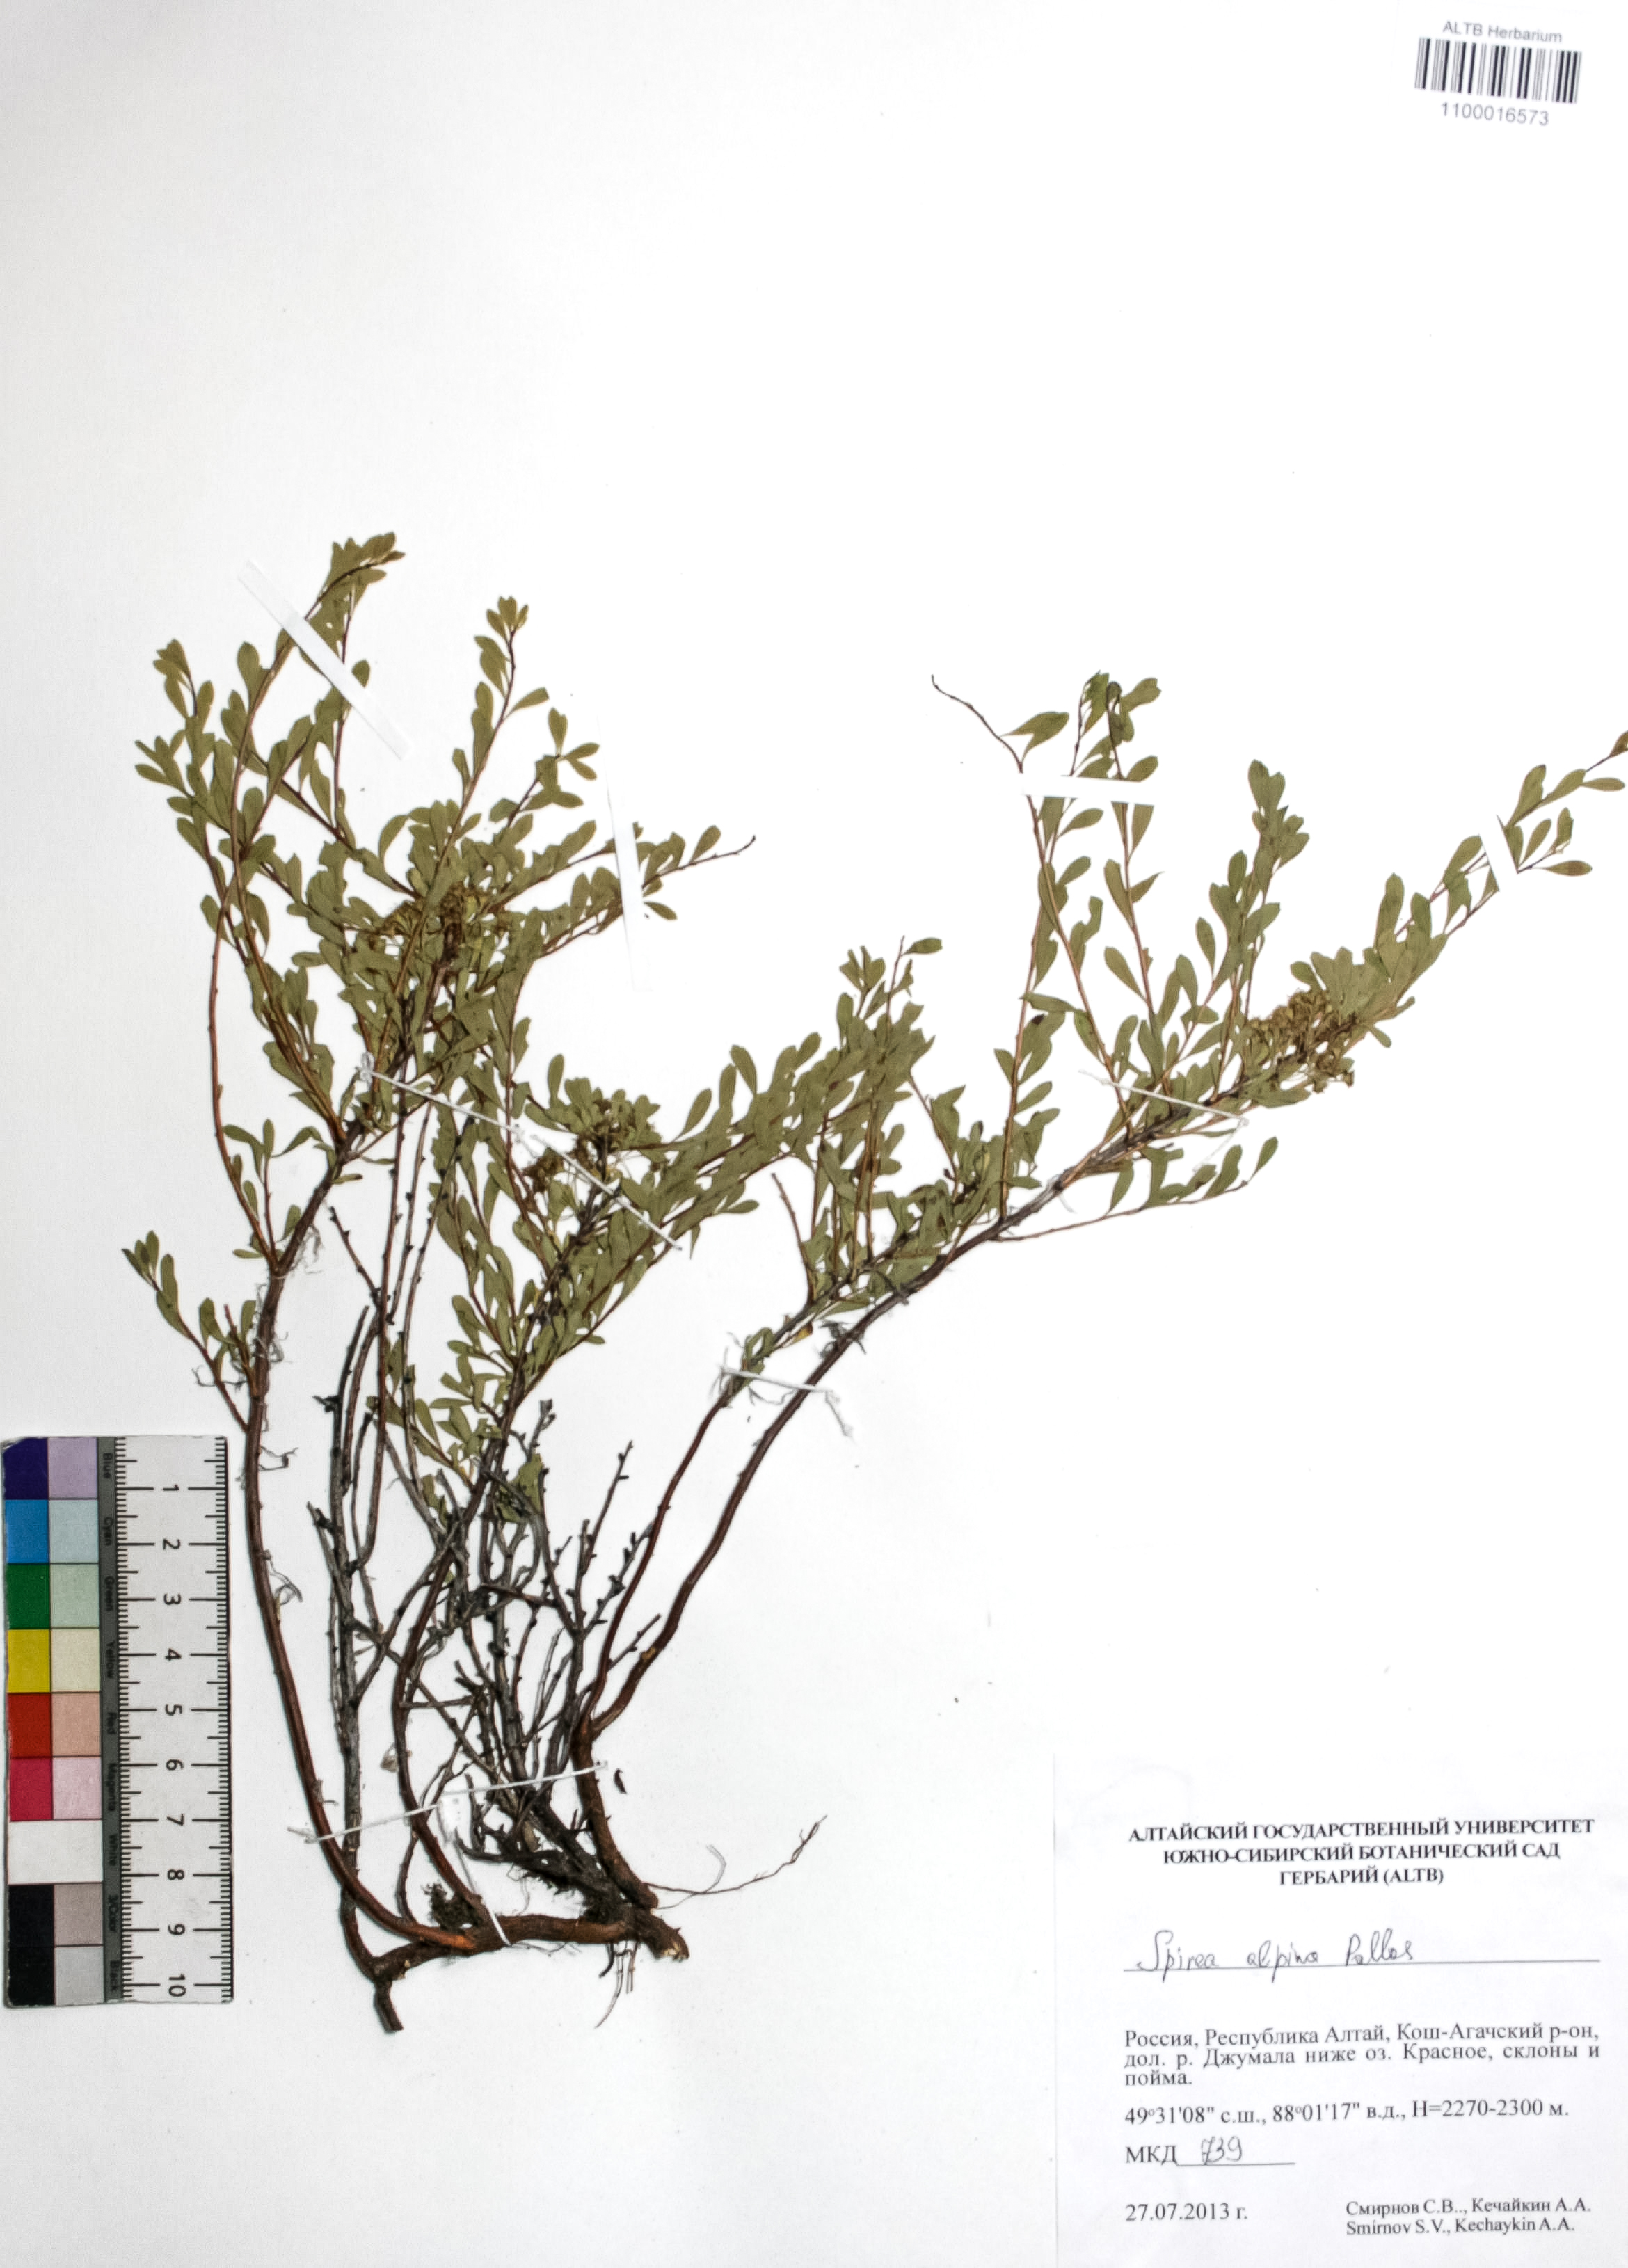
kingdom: Plantae
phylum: Tracheophyta
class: Magnoliopsida
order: Rosales
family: Rosaceae
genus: Spiraea
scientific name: Spiraea alpina
